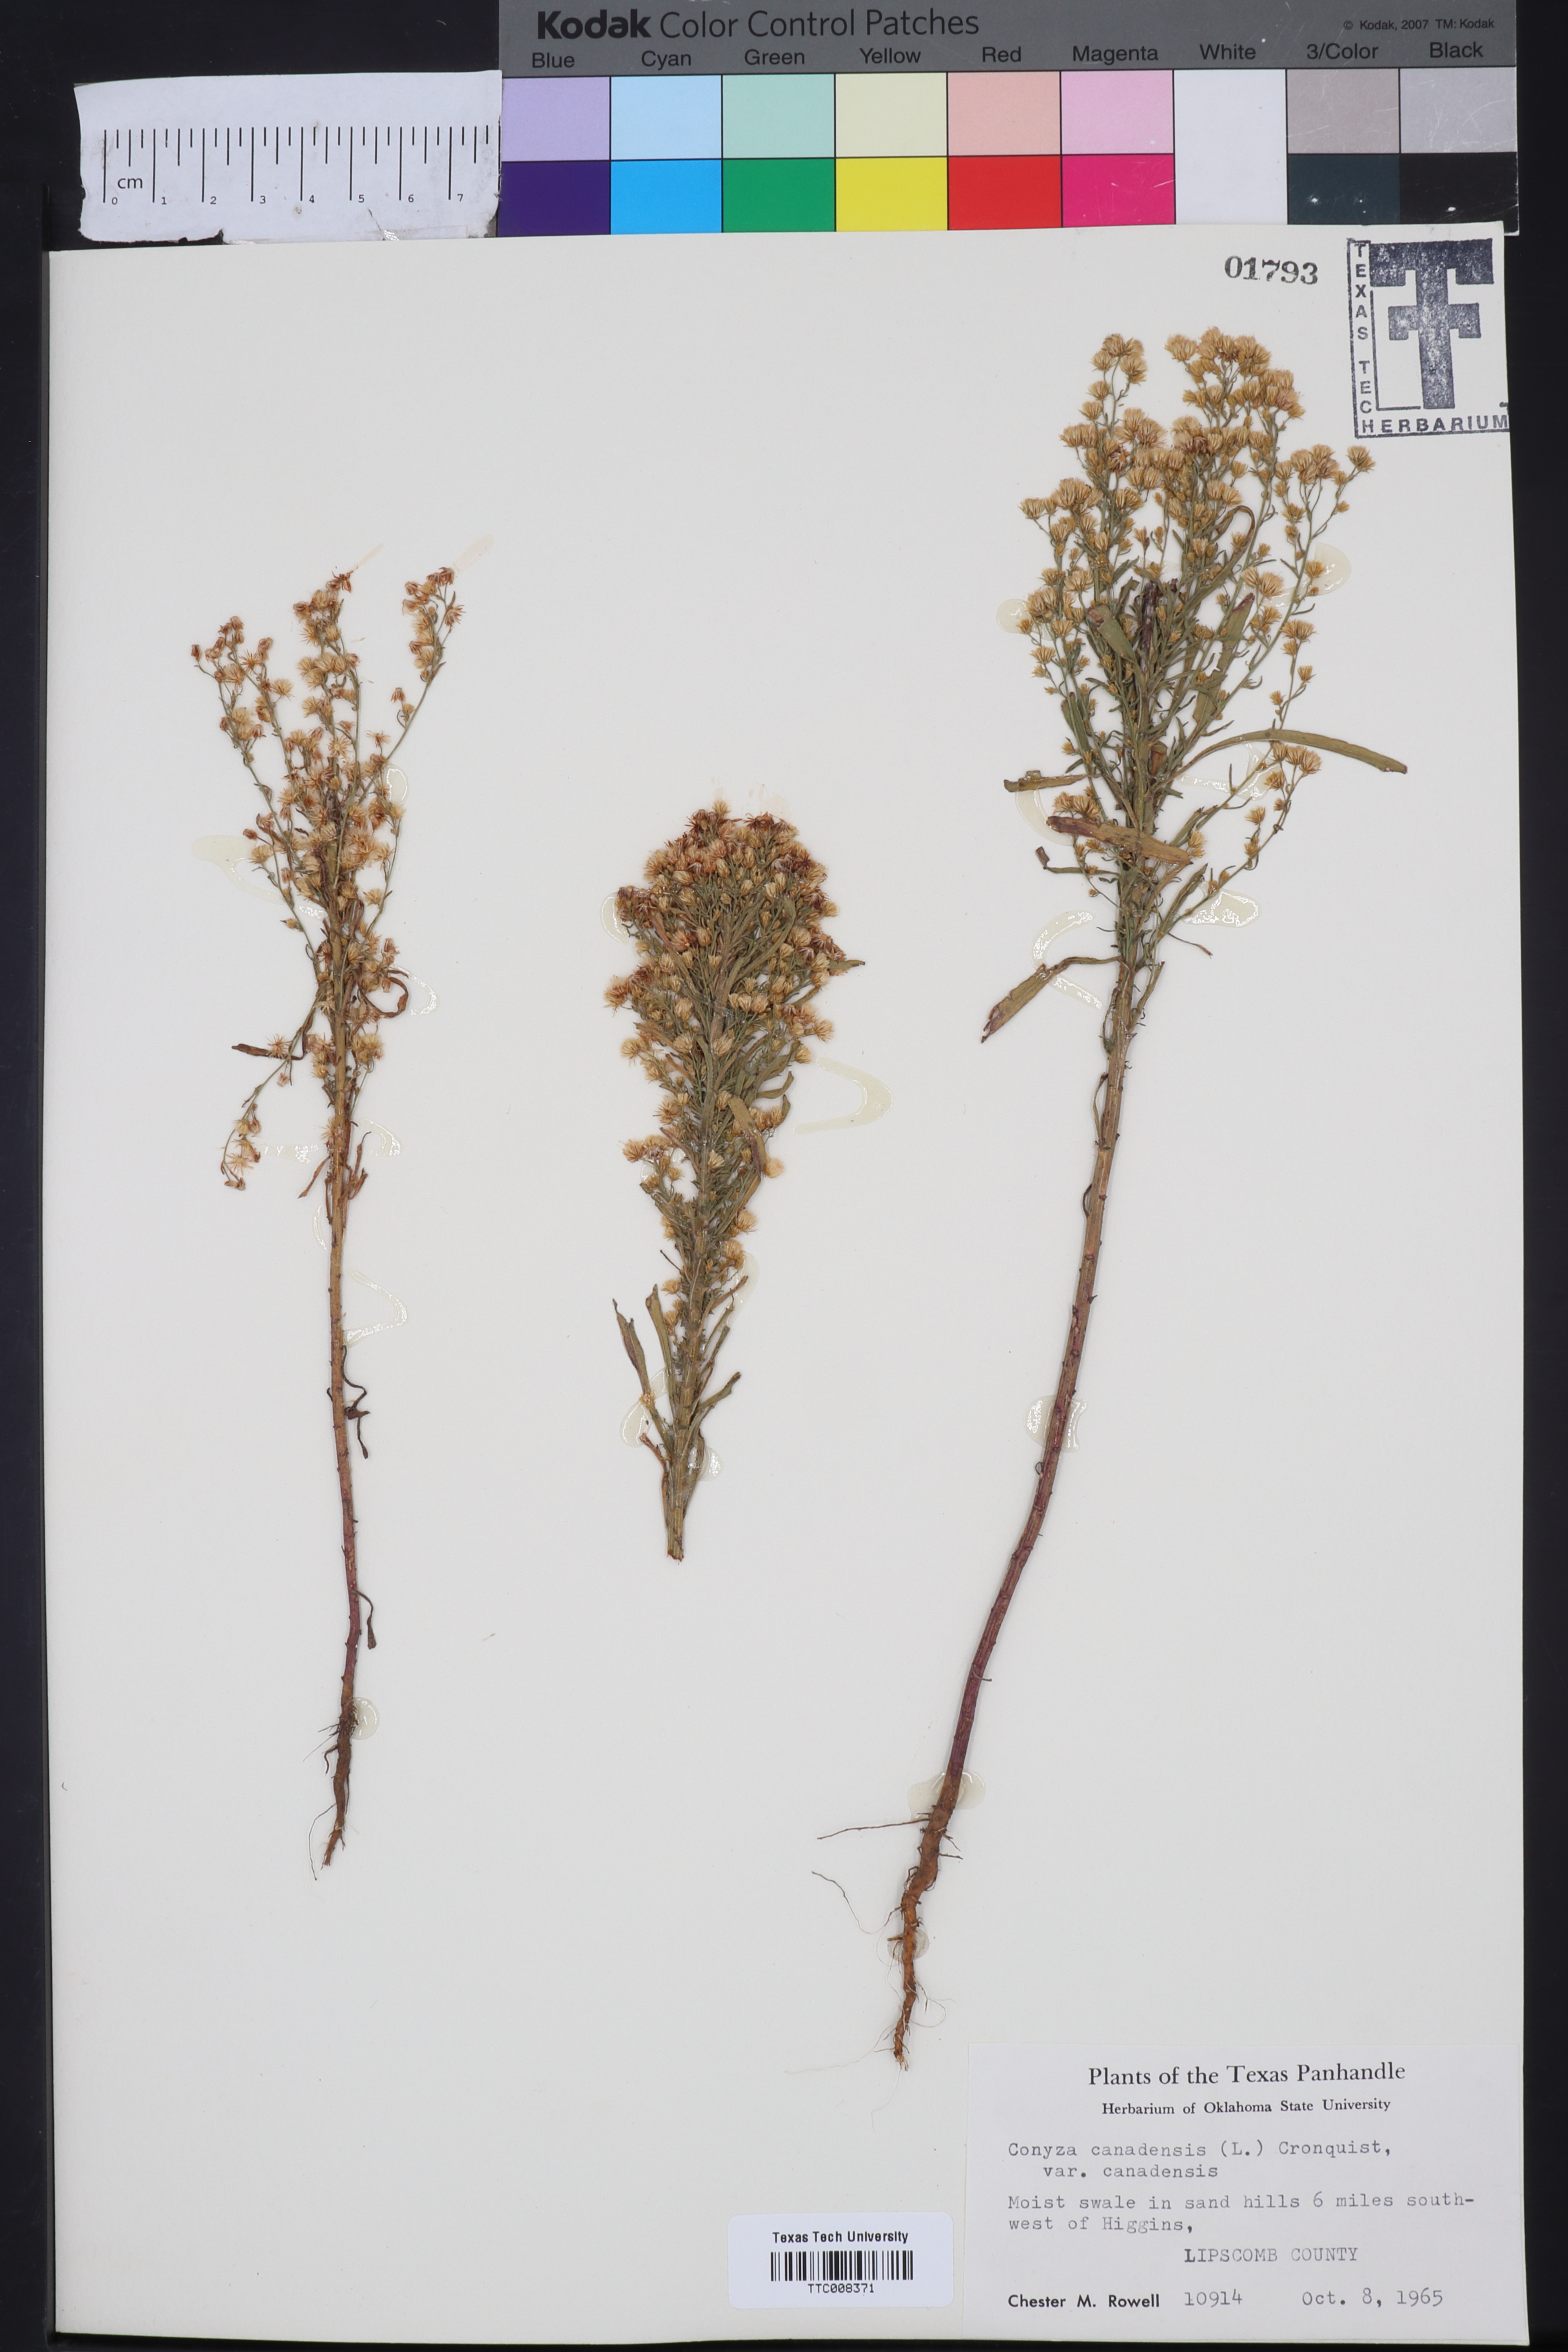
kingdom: Plantae
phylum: Tracheophyta
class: Magnoliopsida
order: Asterales
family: Asteraceae
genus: Erigeron
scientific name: Erigeron canadensis
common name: Canadian fleabane
